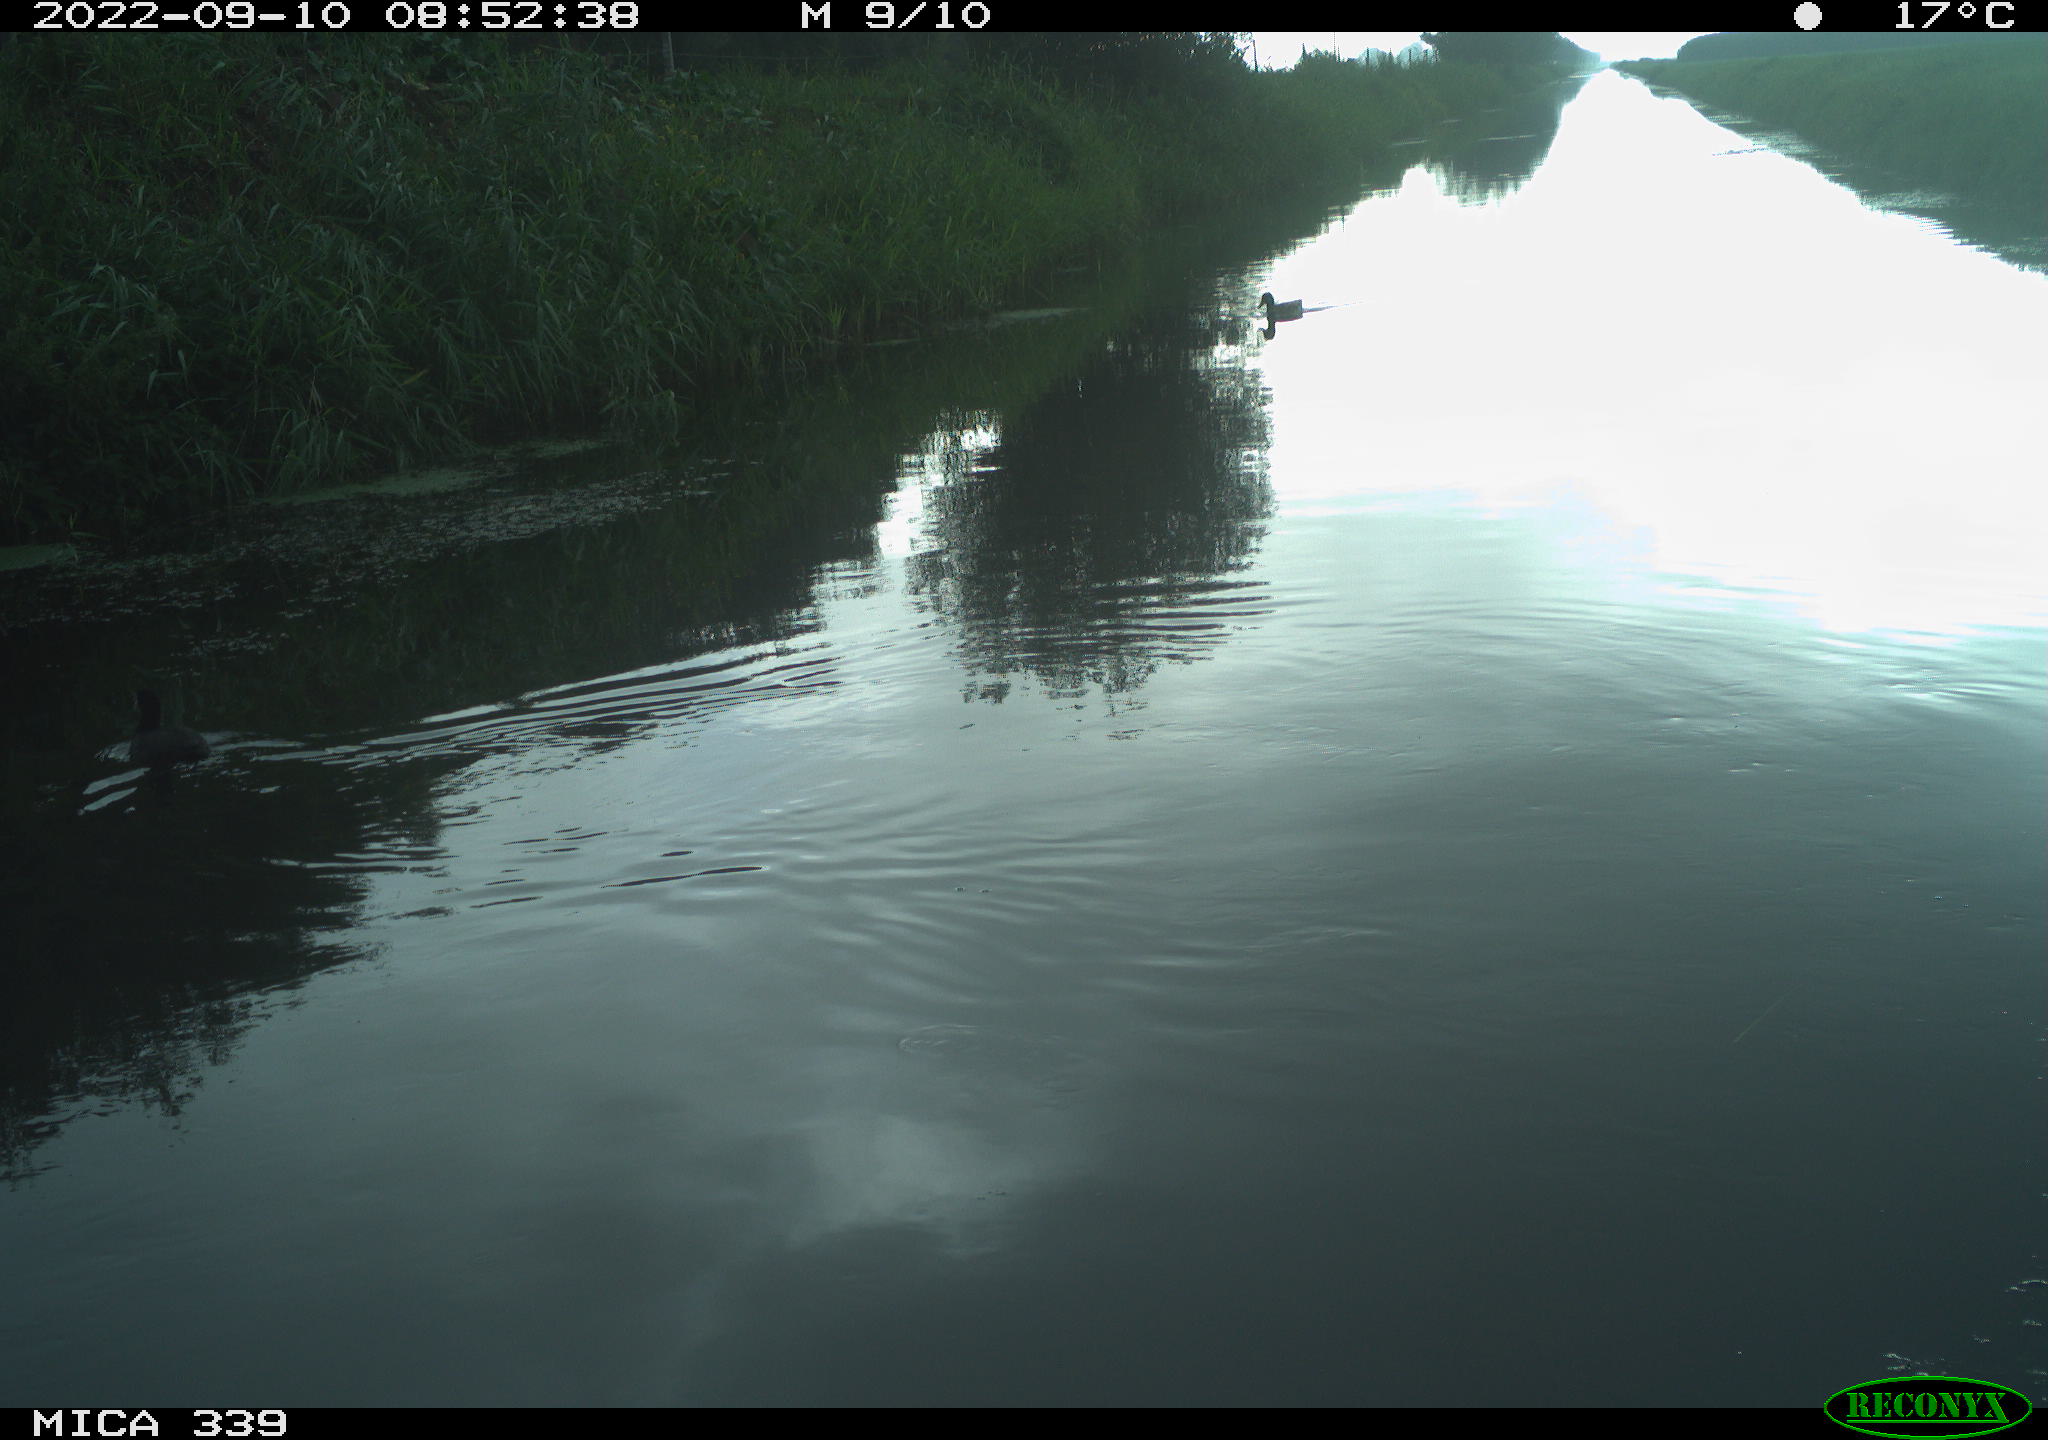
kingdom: Animalia
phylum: Chordata
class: Aves
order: Gruiformes
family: Rallidae
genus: Fulica
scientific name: Fulica atra
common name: Eurasian coot
